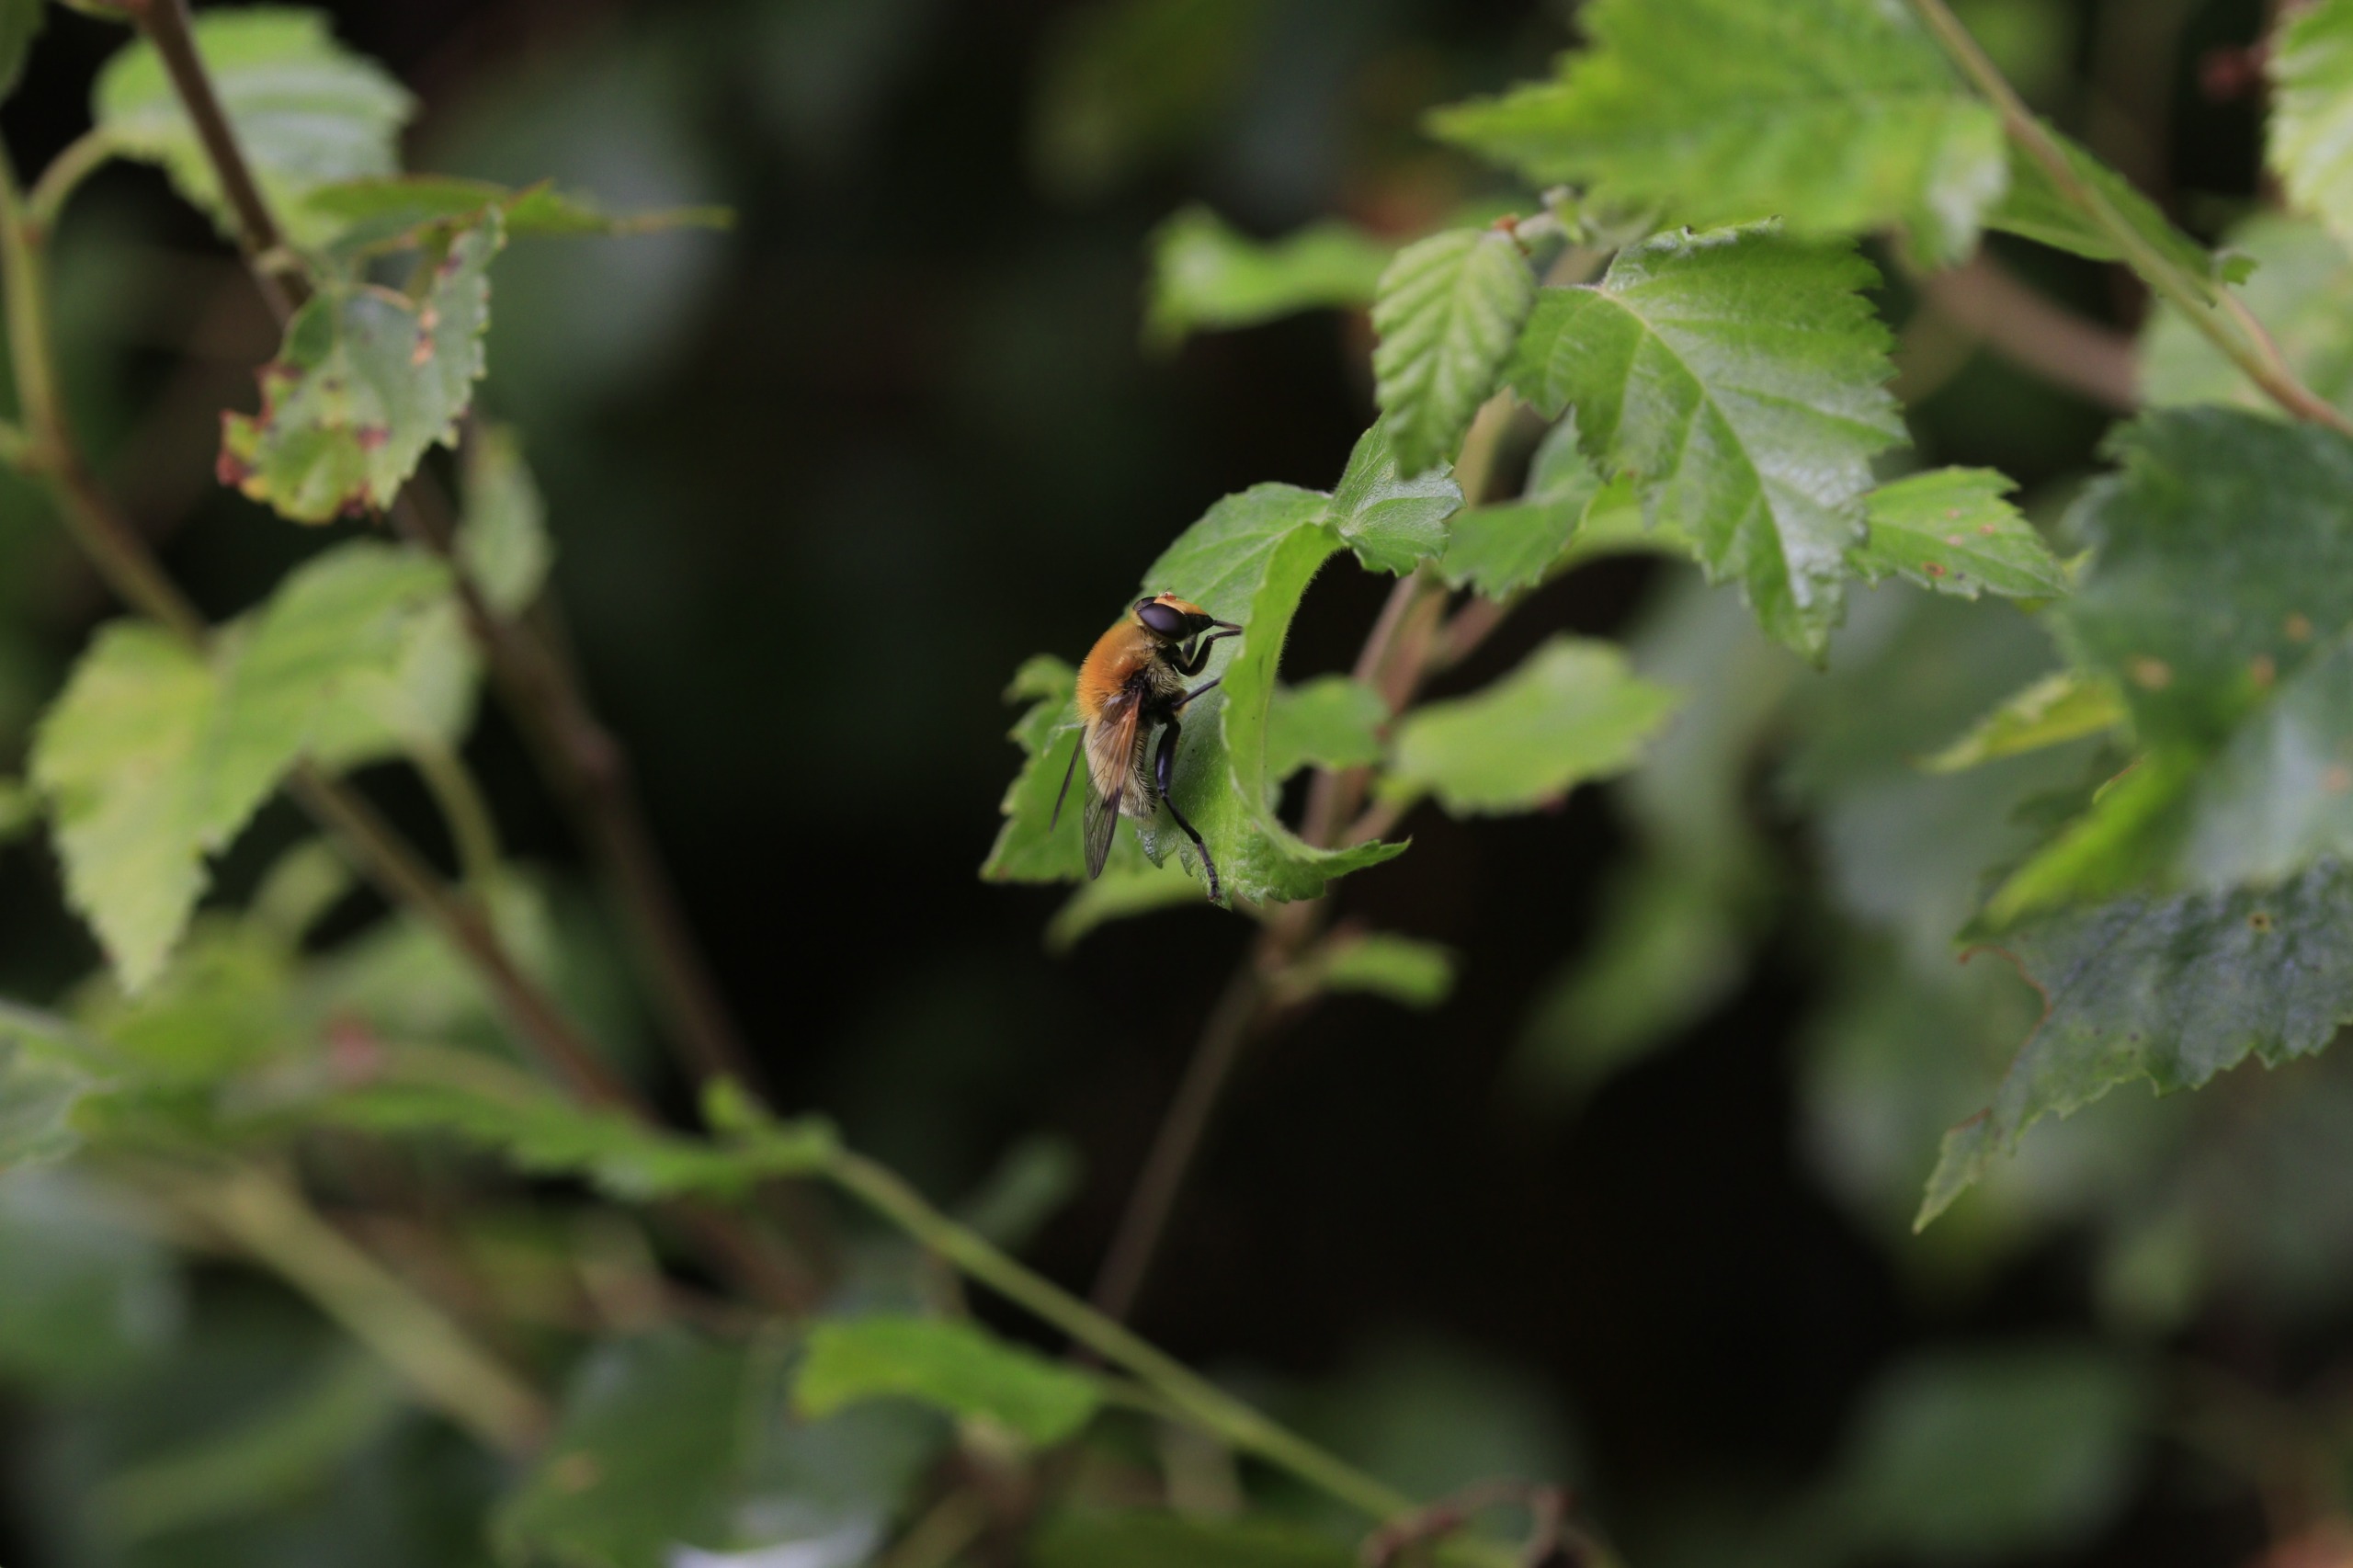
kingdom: Animalia
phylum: Arthropoda
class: Insecta
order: Diptera
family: Syrphidae
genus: Sericomyia
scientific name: Sericomyia superbiens
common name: Brun bjørnesvirreflue
